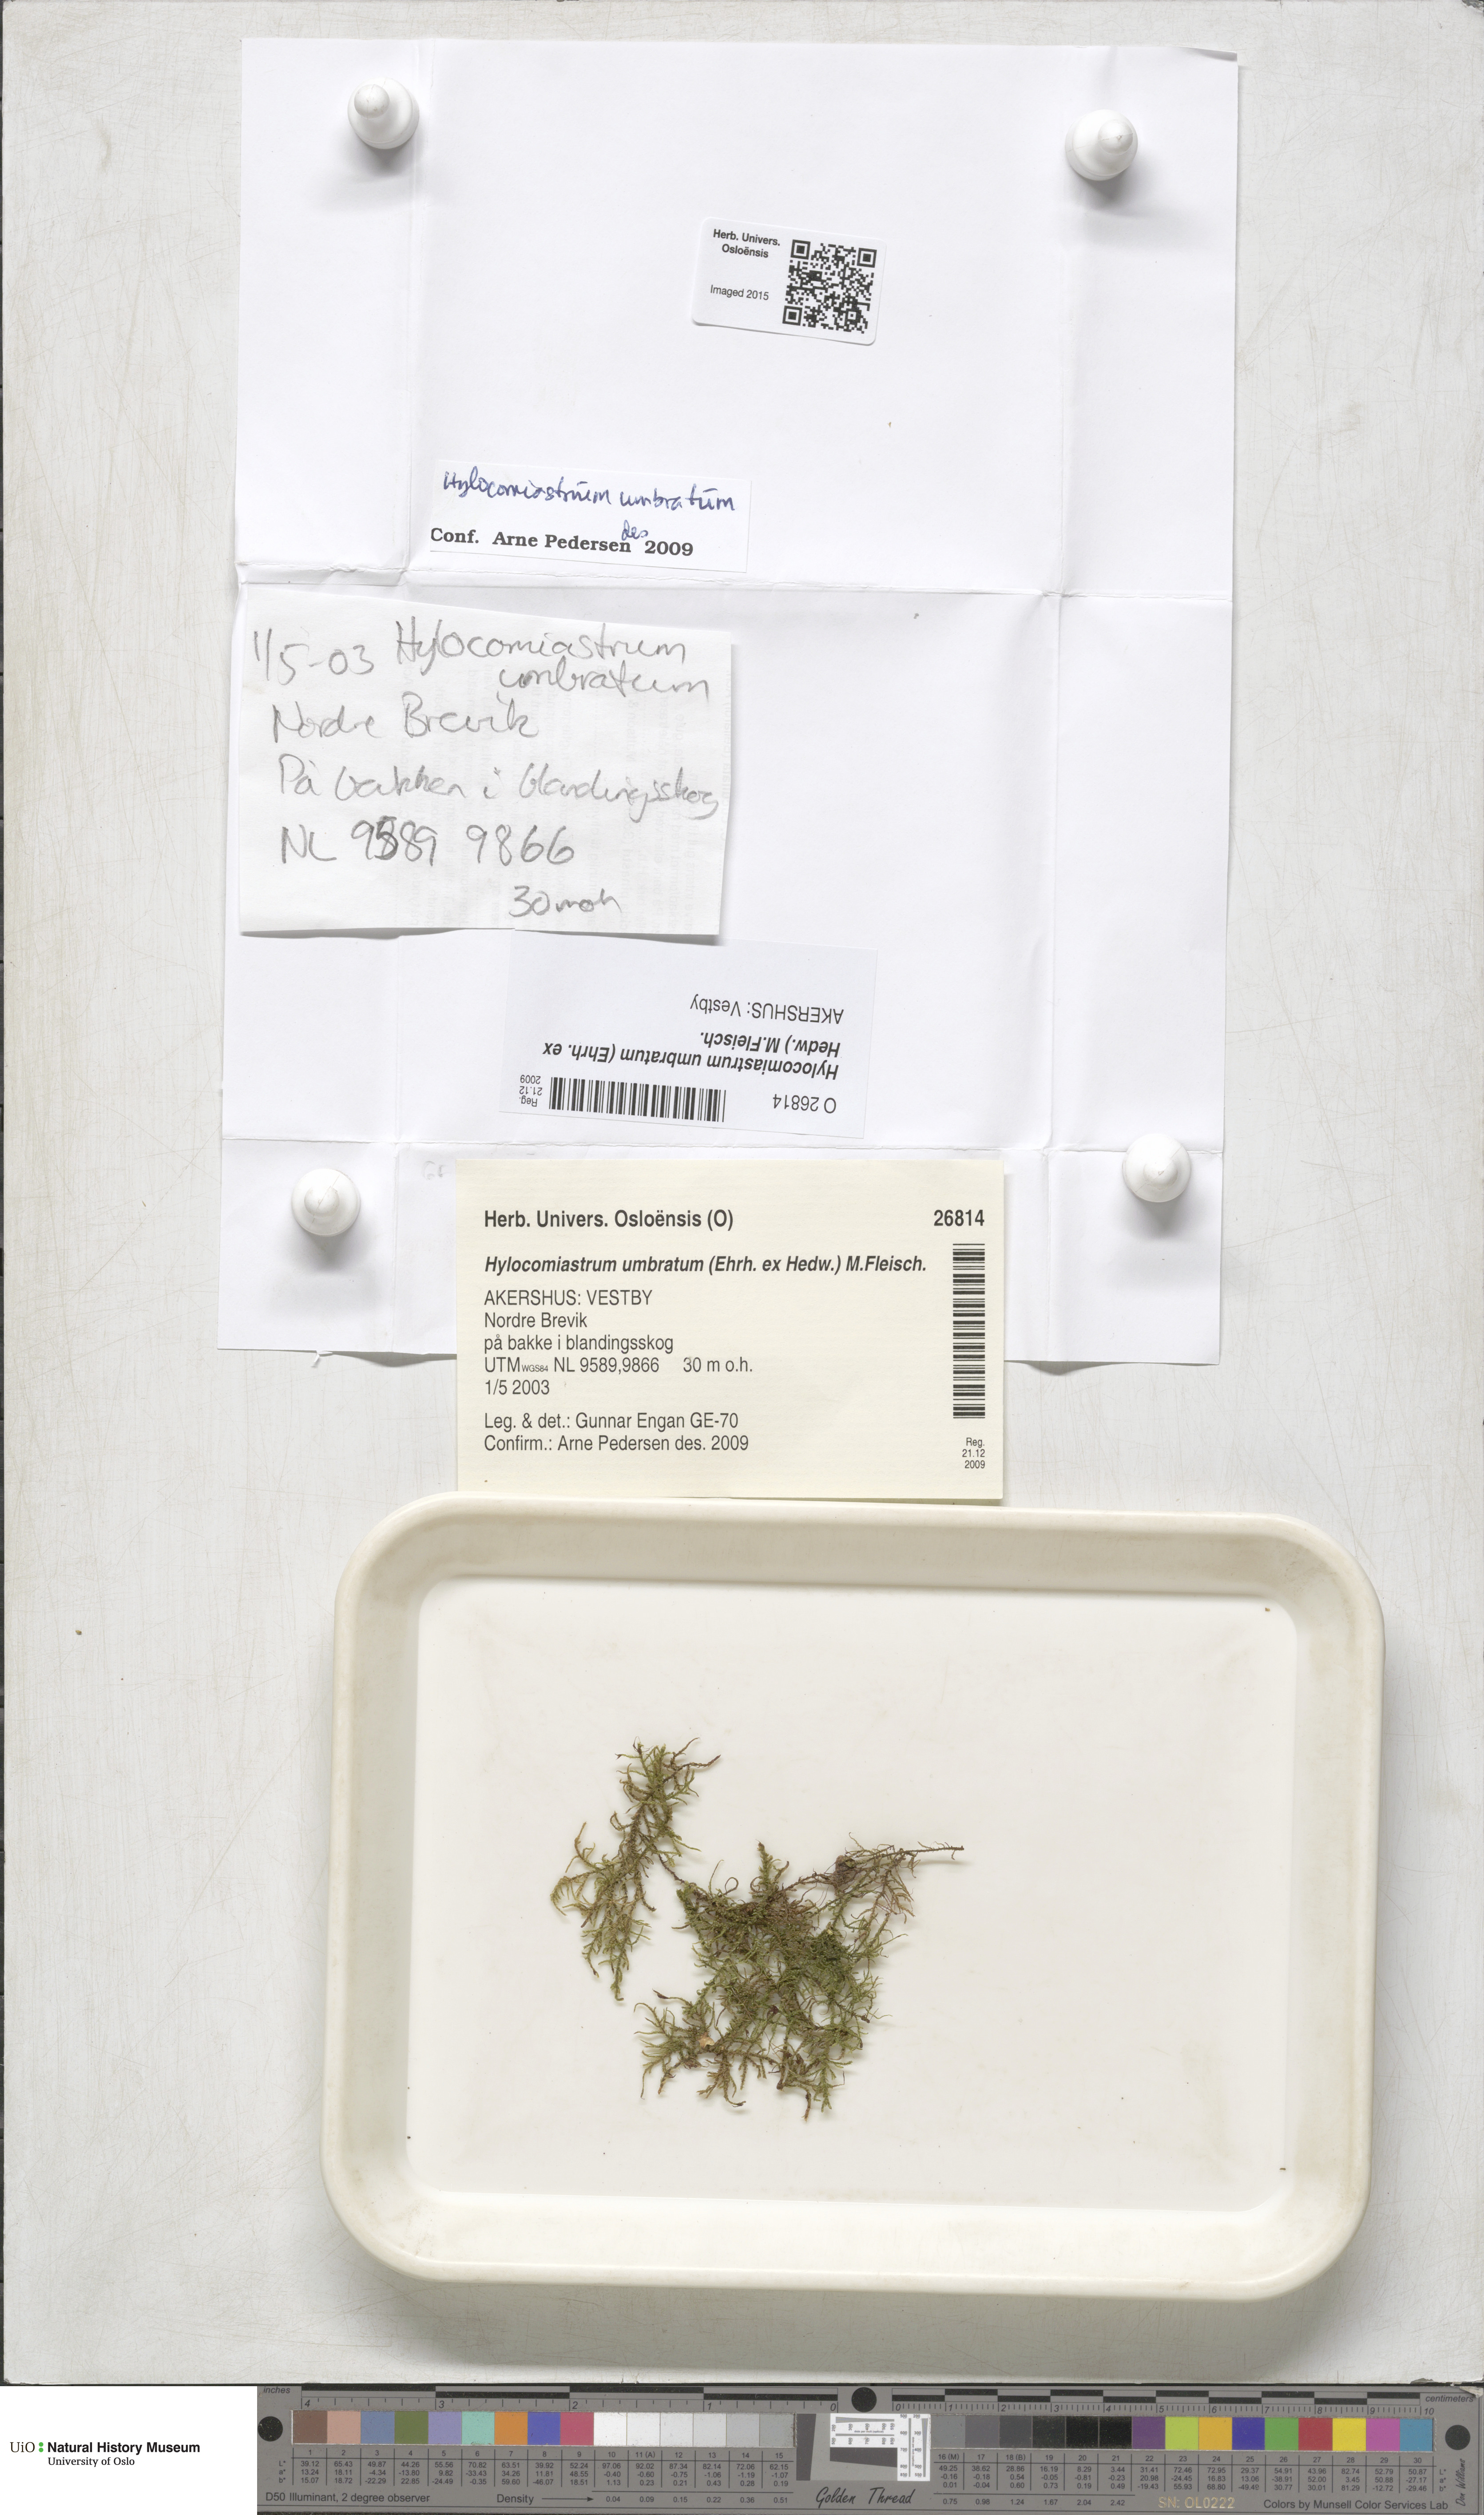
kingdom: Plantae
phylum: Bryophyta
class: Bryopsida
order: Hypnales
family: Hylocomiaceae
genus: Hylocomiastrum
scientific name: Hylocomiastrum umbratum
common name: Shaded woods moss
